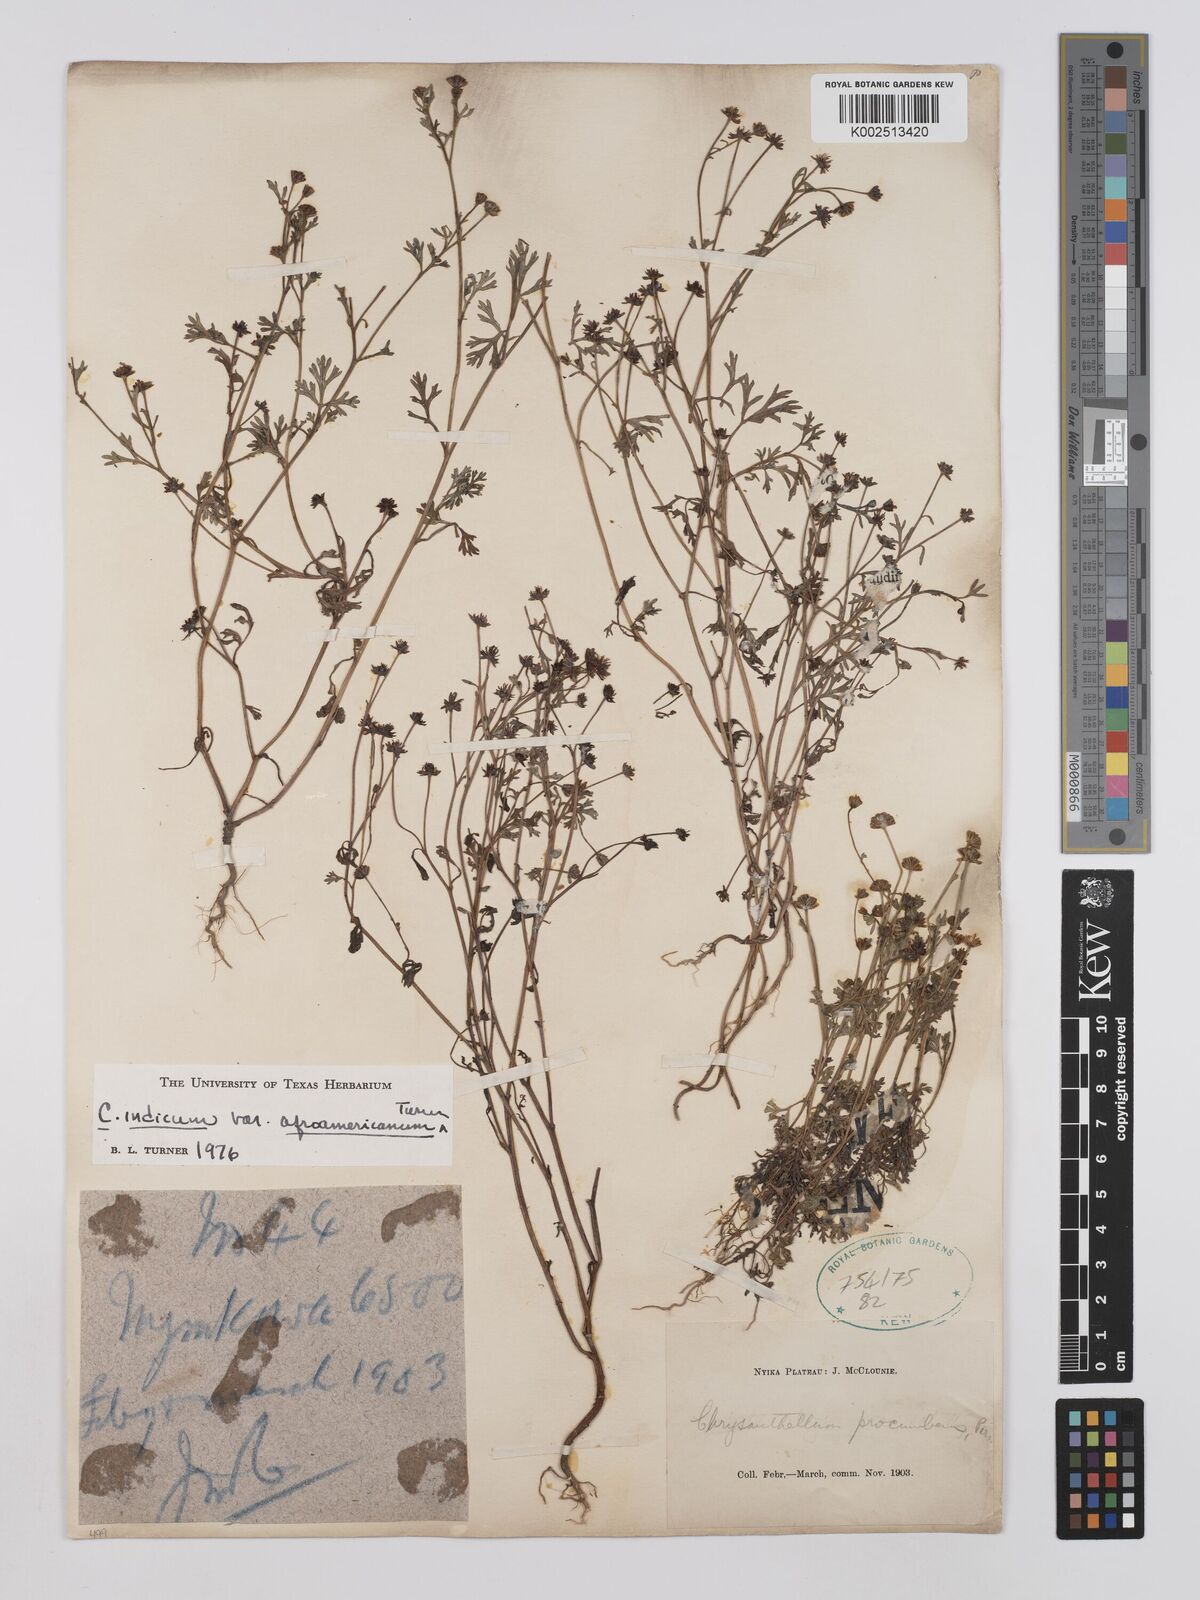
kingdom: Plantae
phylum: Tracheophyta
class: Magnoliopsida
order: Asterales
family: Asteraceae
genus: Chrysanthellum
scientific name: Chrysanthellum indicum
